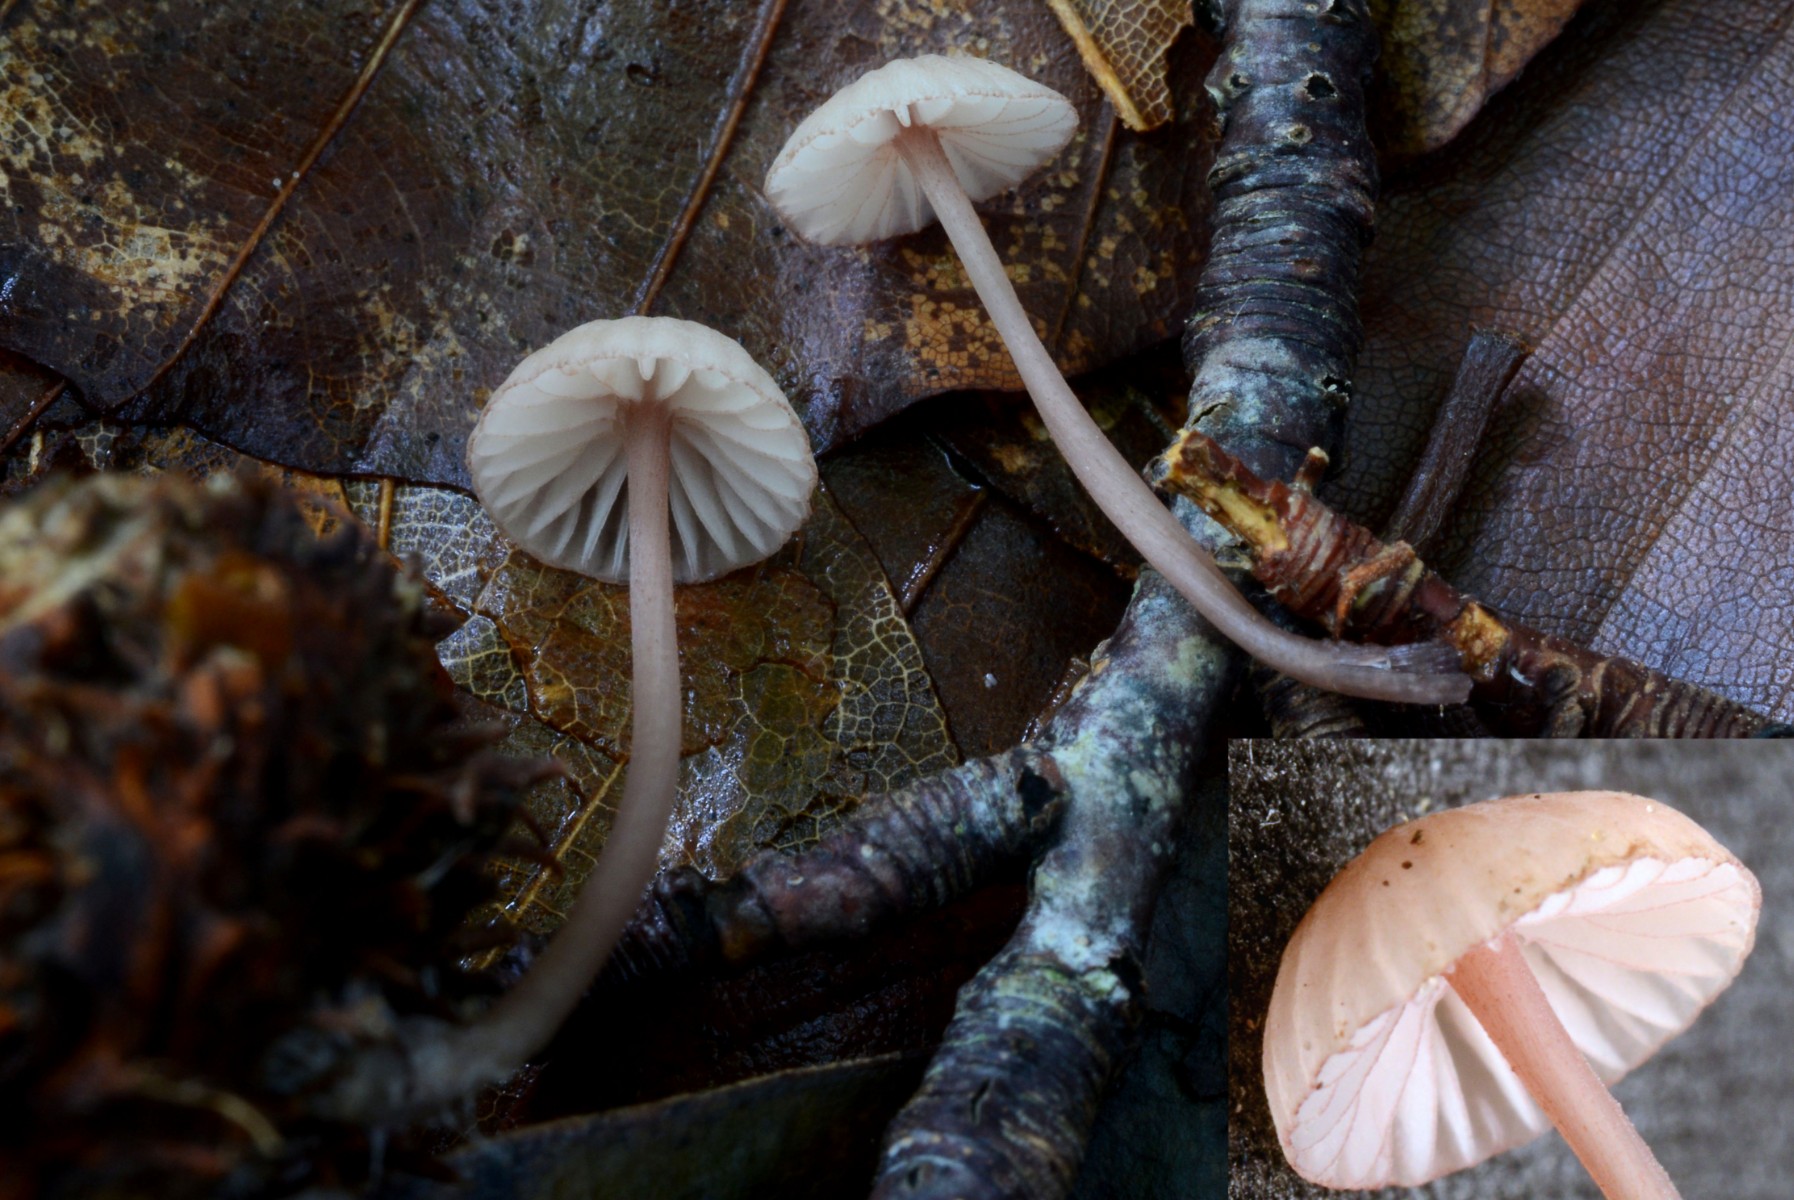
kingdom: Fungi
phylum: Basidiomycota
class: Agaricomycetes
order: Agaricales
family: Mycenaceae
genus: Mycena
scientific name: Mycena sanguinolenta
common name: rødmælket huesvamp
